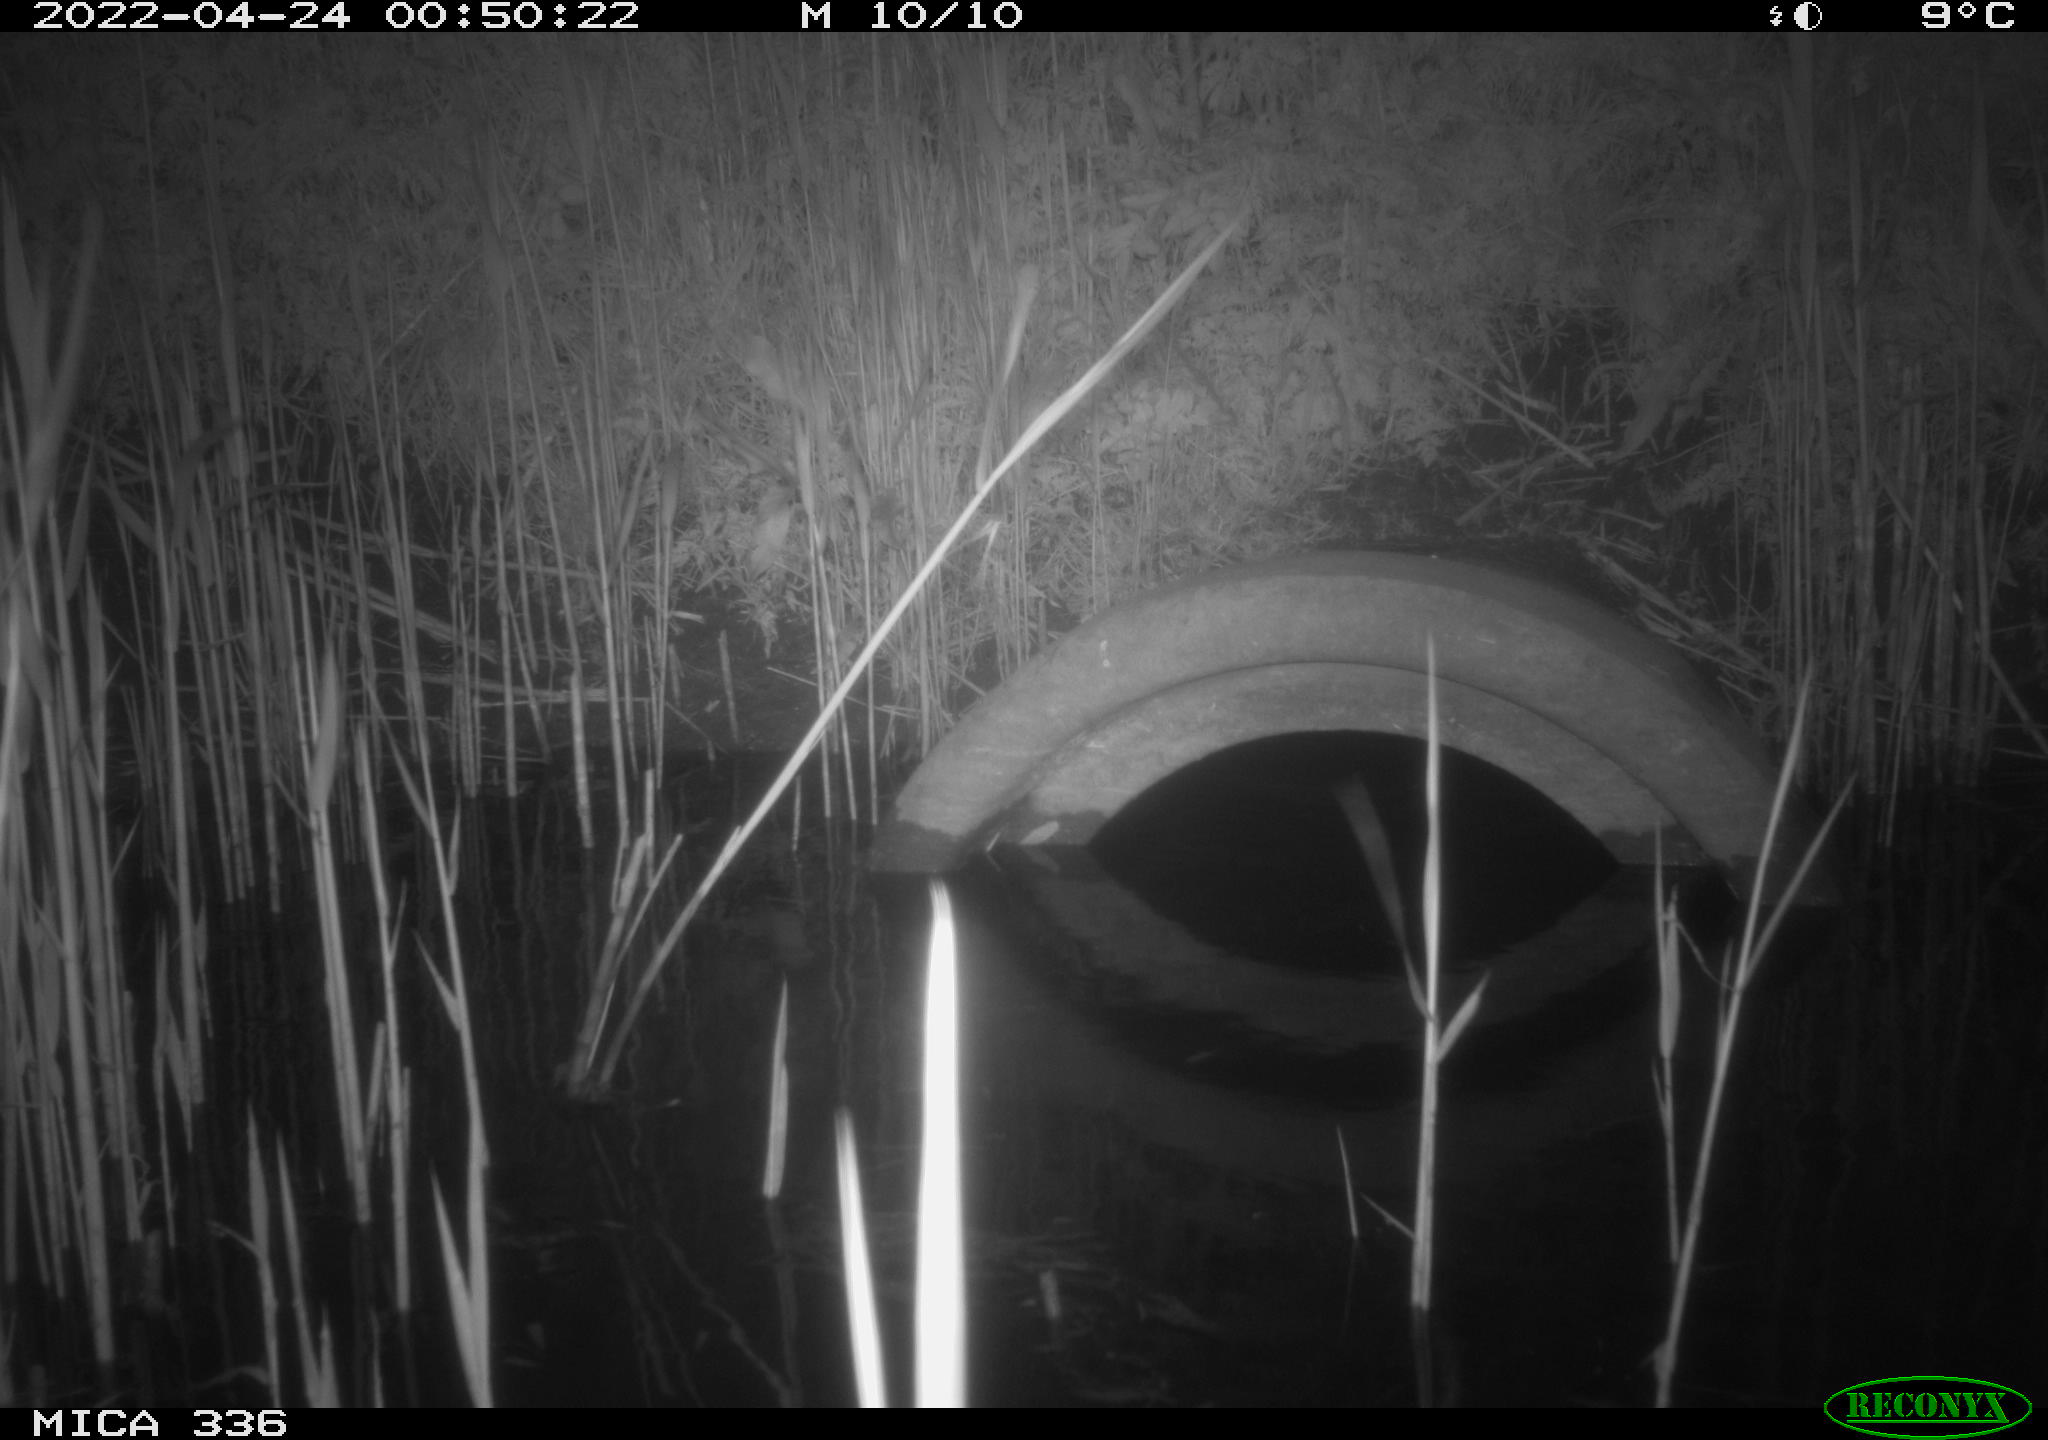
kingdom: Animalia
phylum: Chordata
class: Mammalia
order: Rodentia
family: Muridae
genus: Rattus
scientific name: Rattus norvegicus
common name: Brown rat
